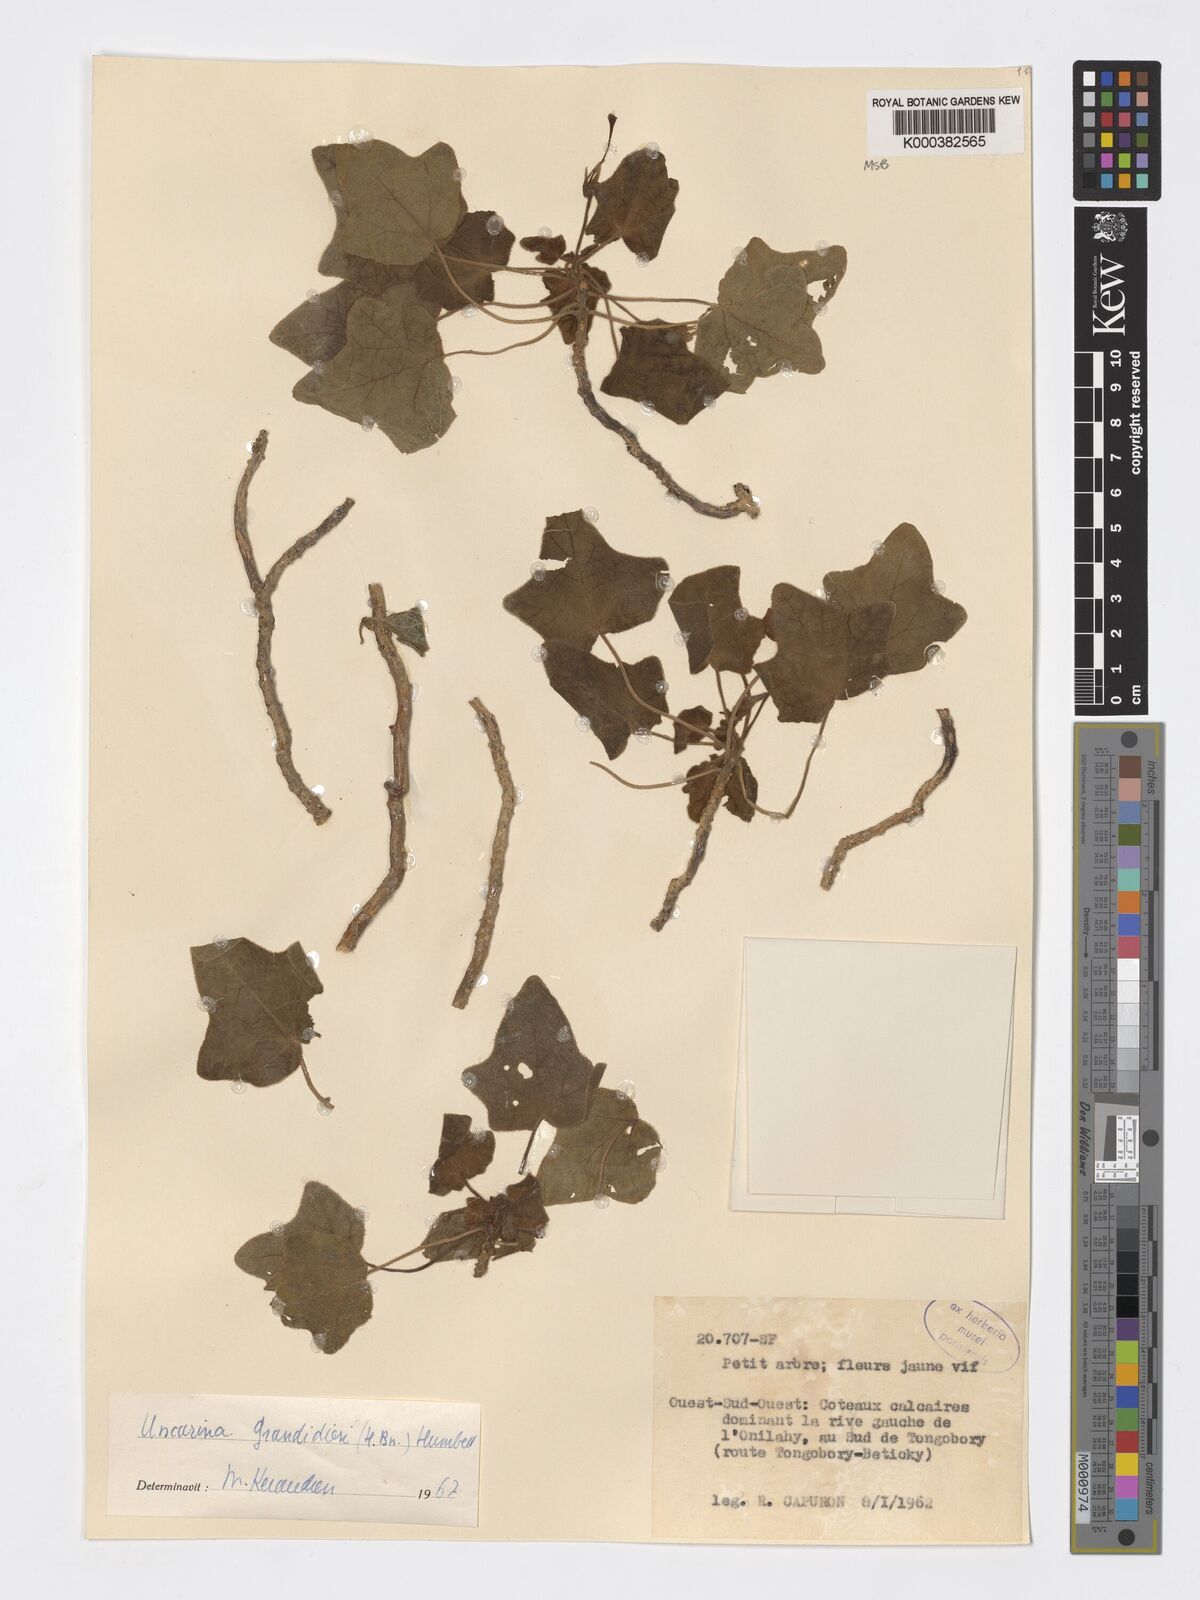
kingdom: Plantae
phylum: Tracheophyta
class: Magnoliopsida
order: Lamiales
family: Pedaliaceae
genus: Uncarina
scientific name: Uncarina
